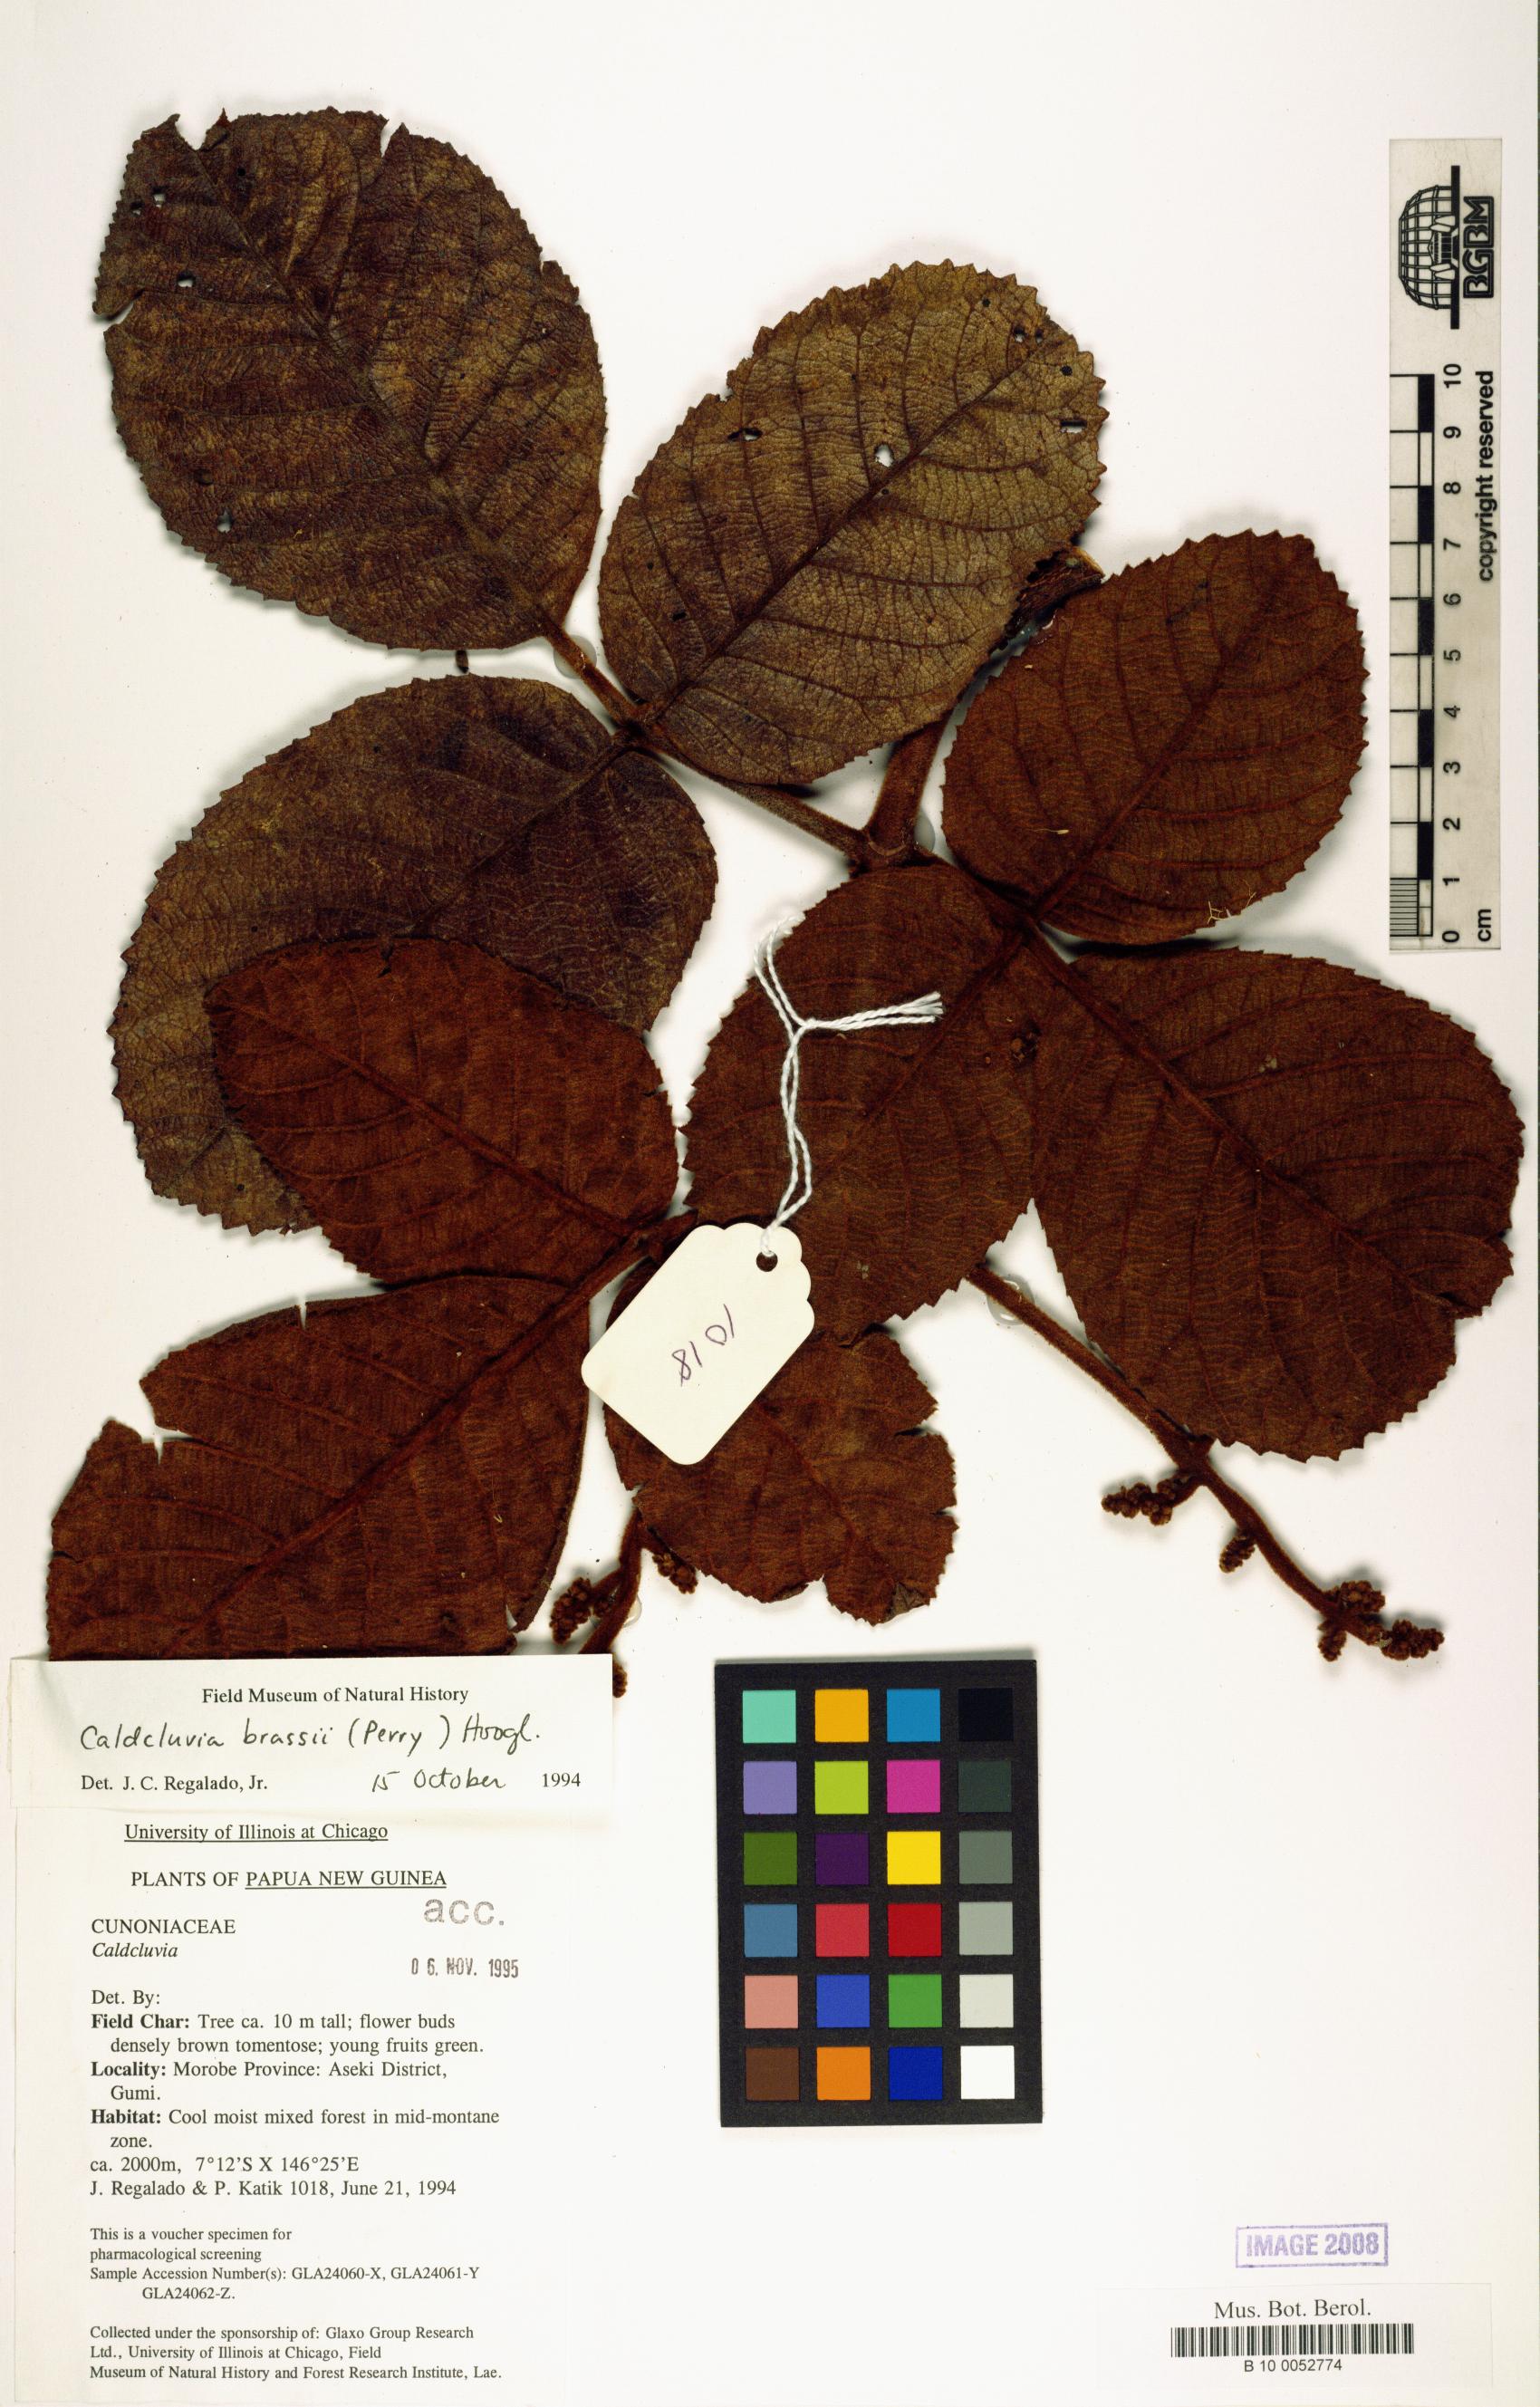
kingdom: Plantae
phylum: Tracheophyta
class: Magnoliopsida
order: Oxalidales
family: Cunoniaceae
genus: Ackama
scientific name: Ackama brassii
